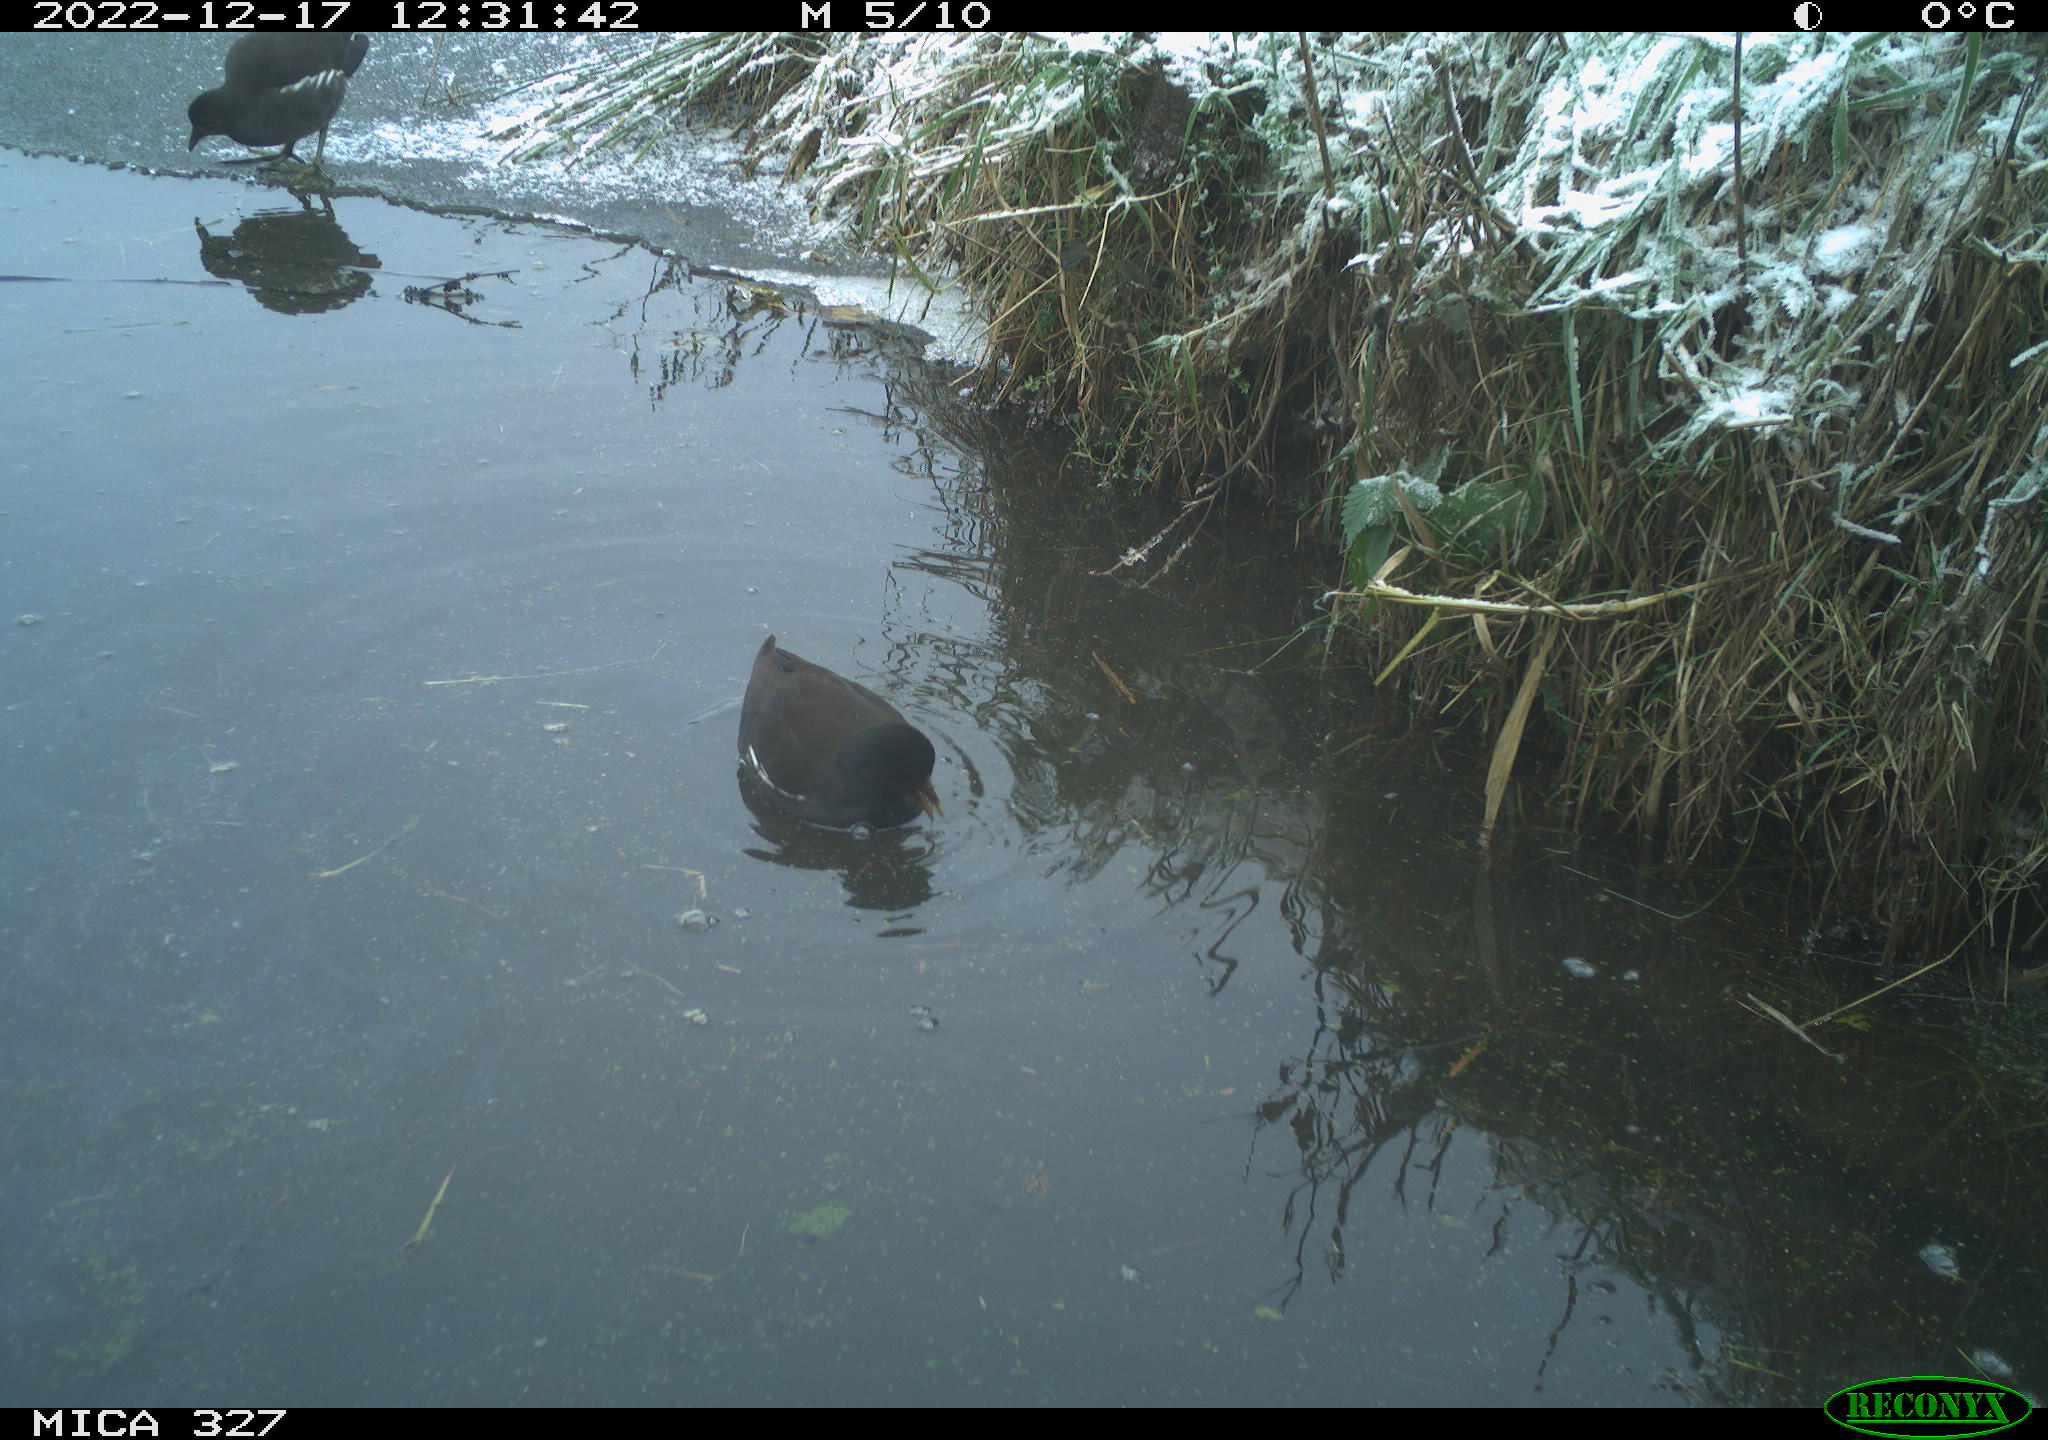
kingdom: Animalia
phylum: Chordata
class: Aves
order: Gruiformes
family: Rallidae
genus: Gallinula
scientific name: Gallinula chloropus
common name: Common moorhen
